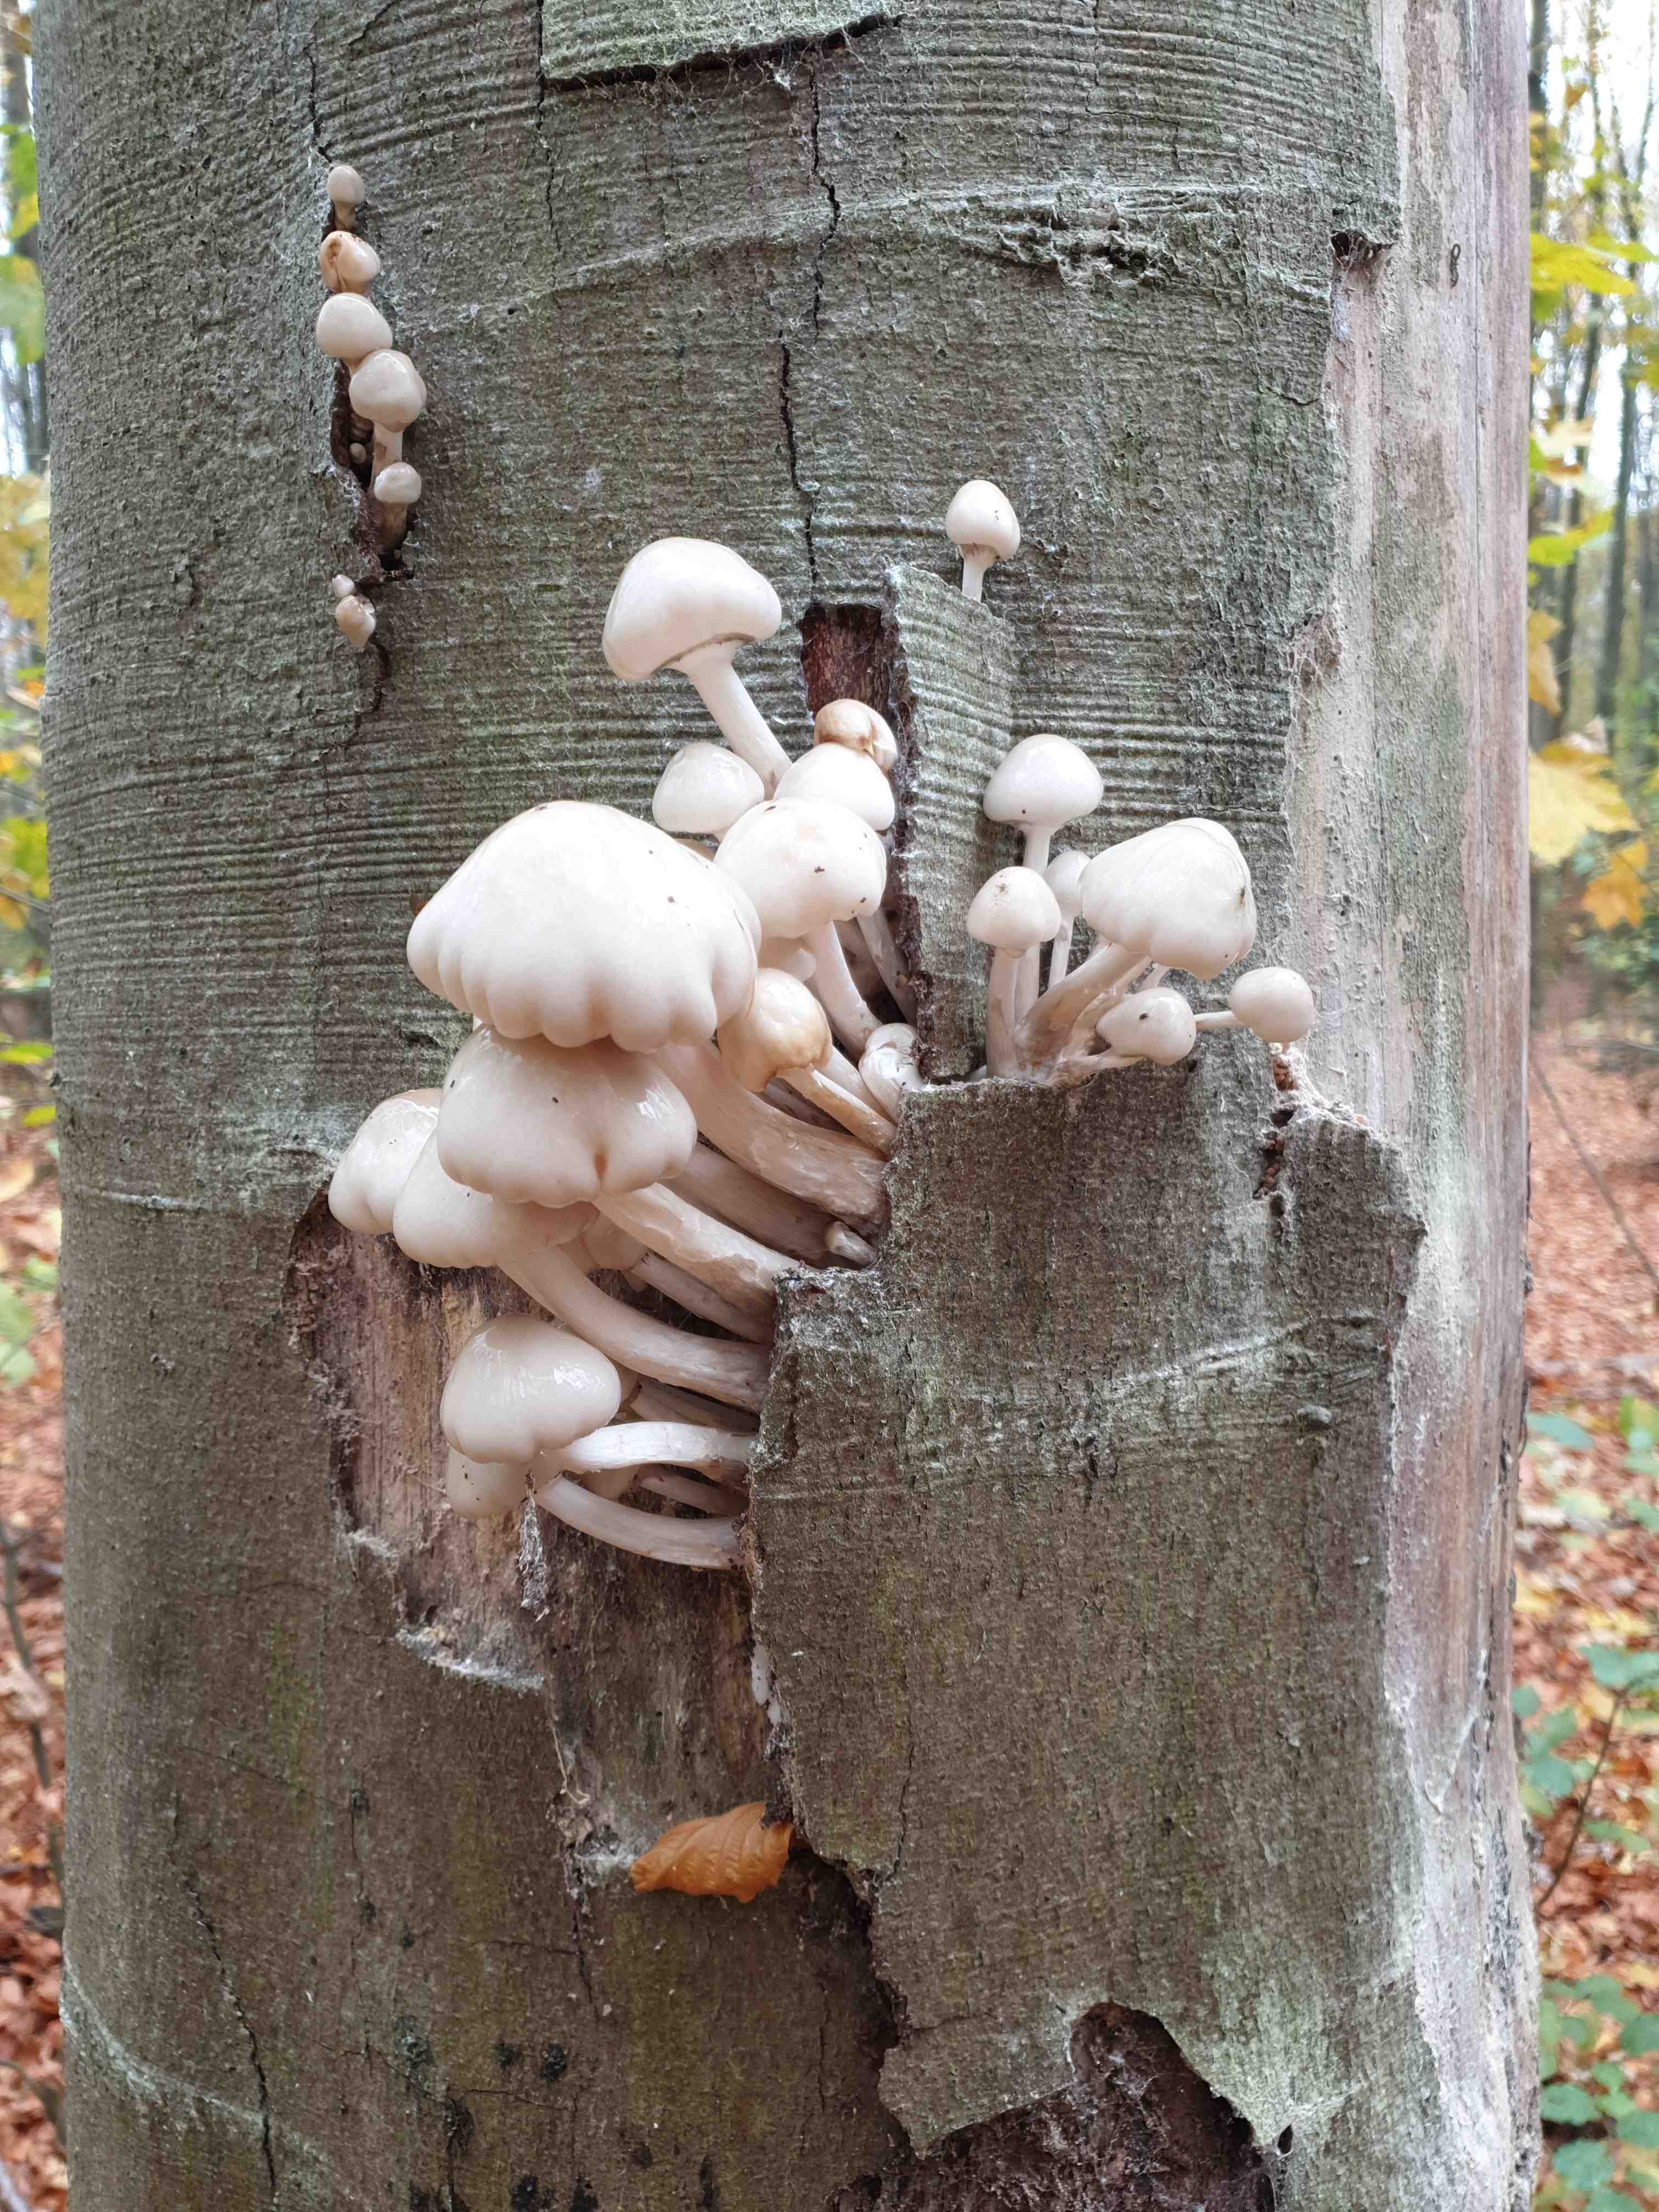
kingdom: Fungi
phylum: Basidiomycota
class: Agaricomycetes
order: Agaricales
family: Physalacriaceae
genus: Mucidula
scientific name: Mucidula mucida
